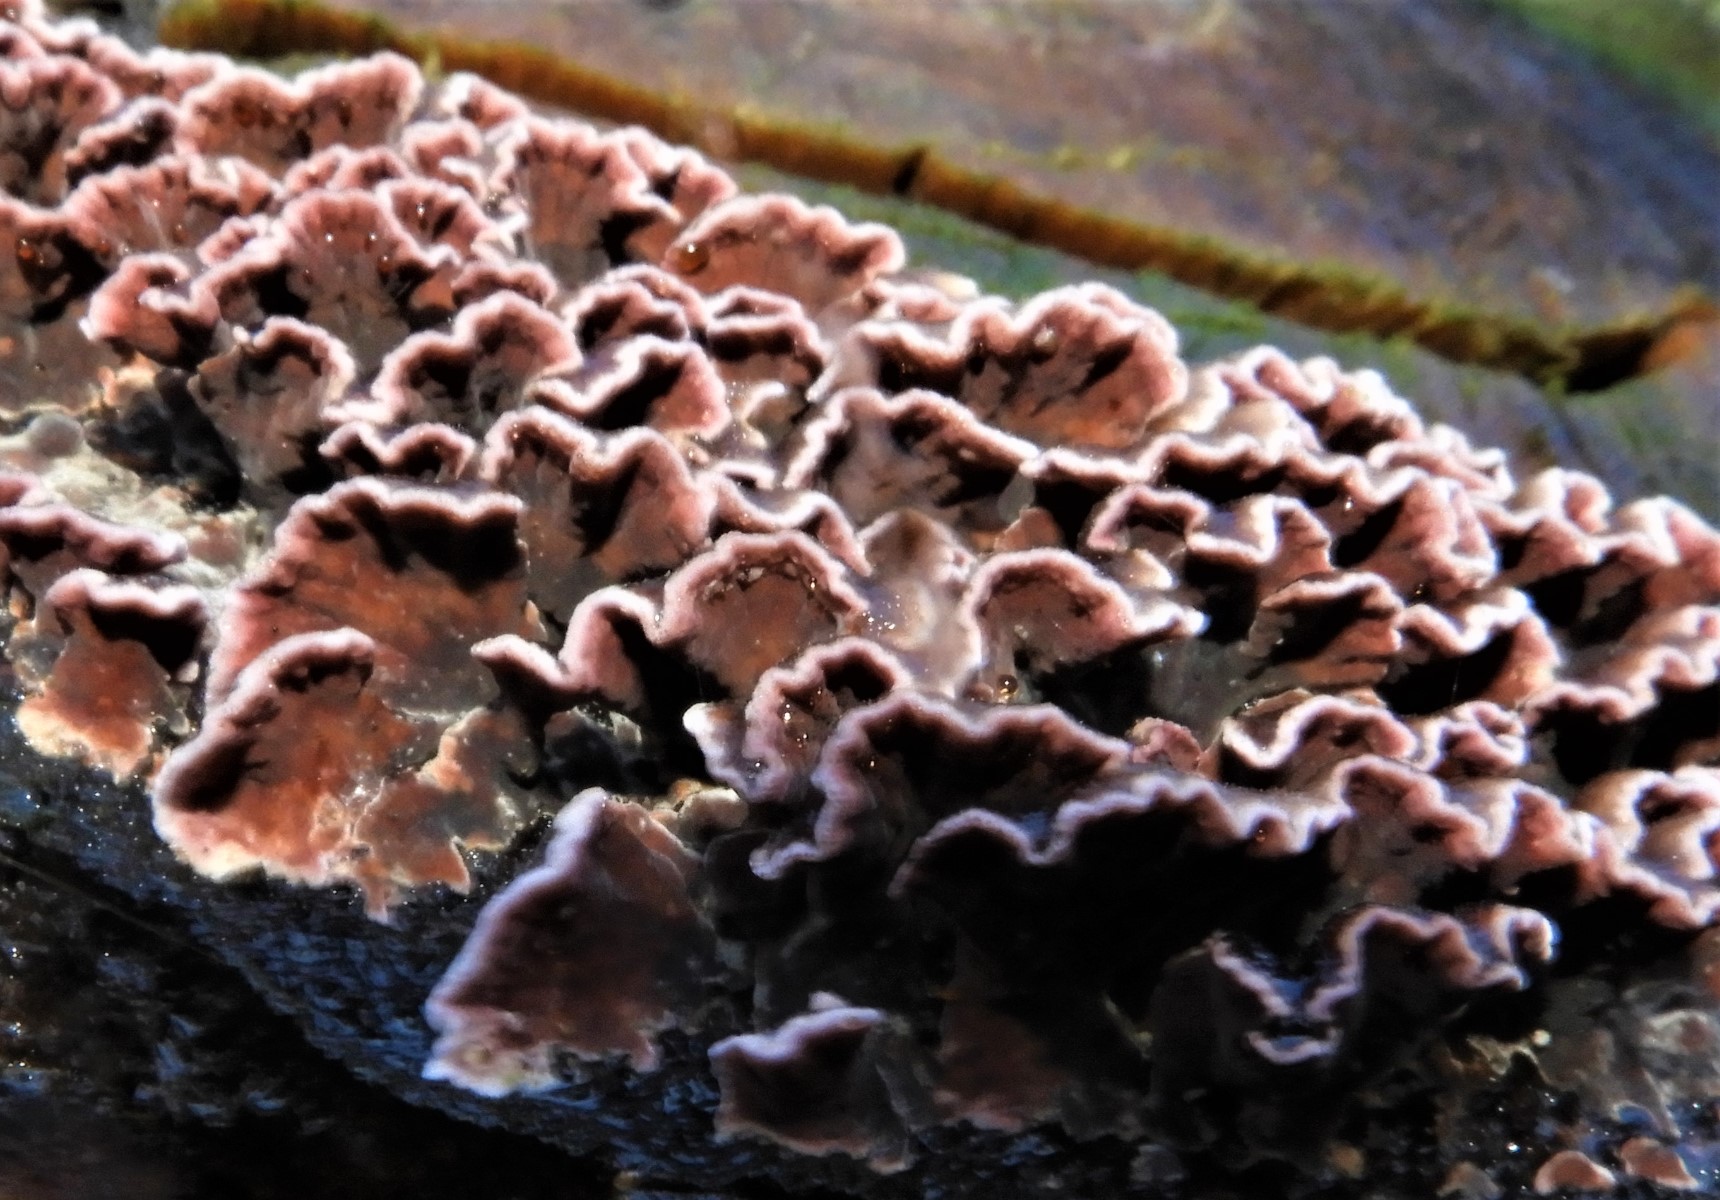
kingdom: Fungi
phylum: Basidiomycota
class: Agaricomycetes
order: Agaricales
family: Cyphellaceae
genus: Chondrostereum
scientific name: Chondrostereum purpureum
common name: purpurlædersvamp
